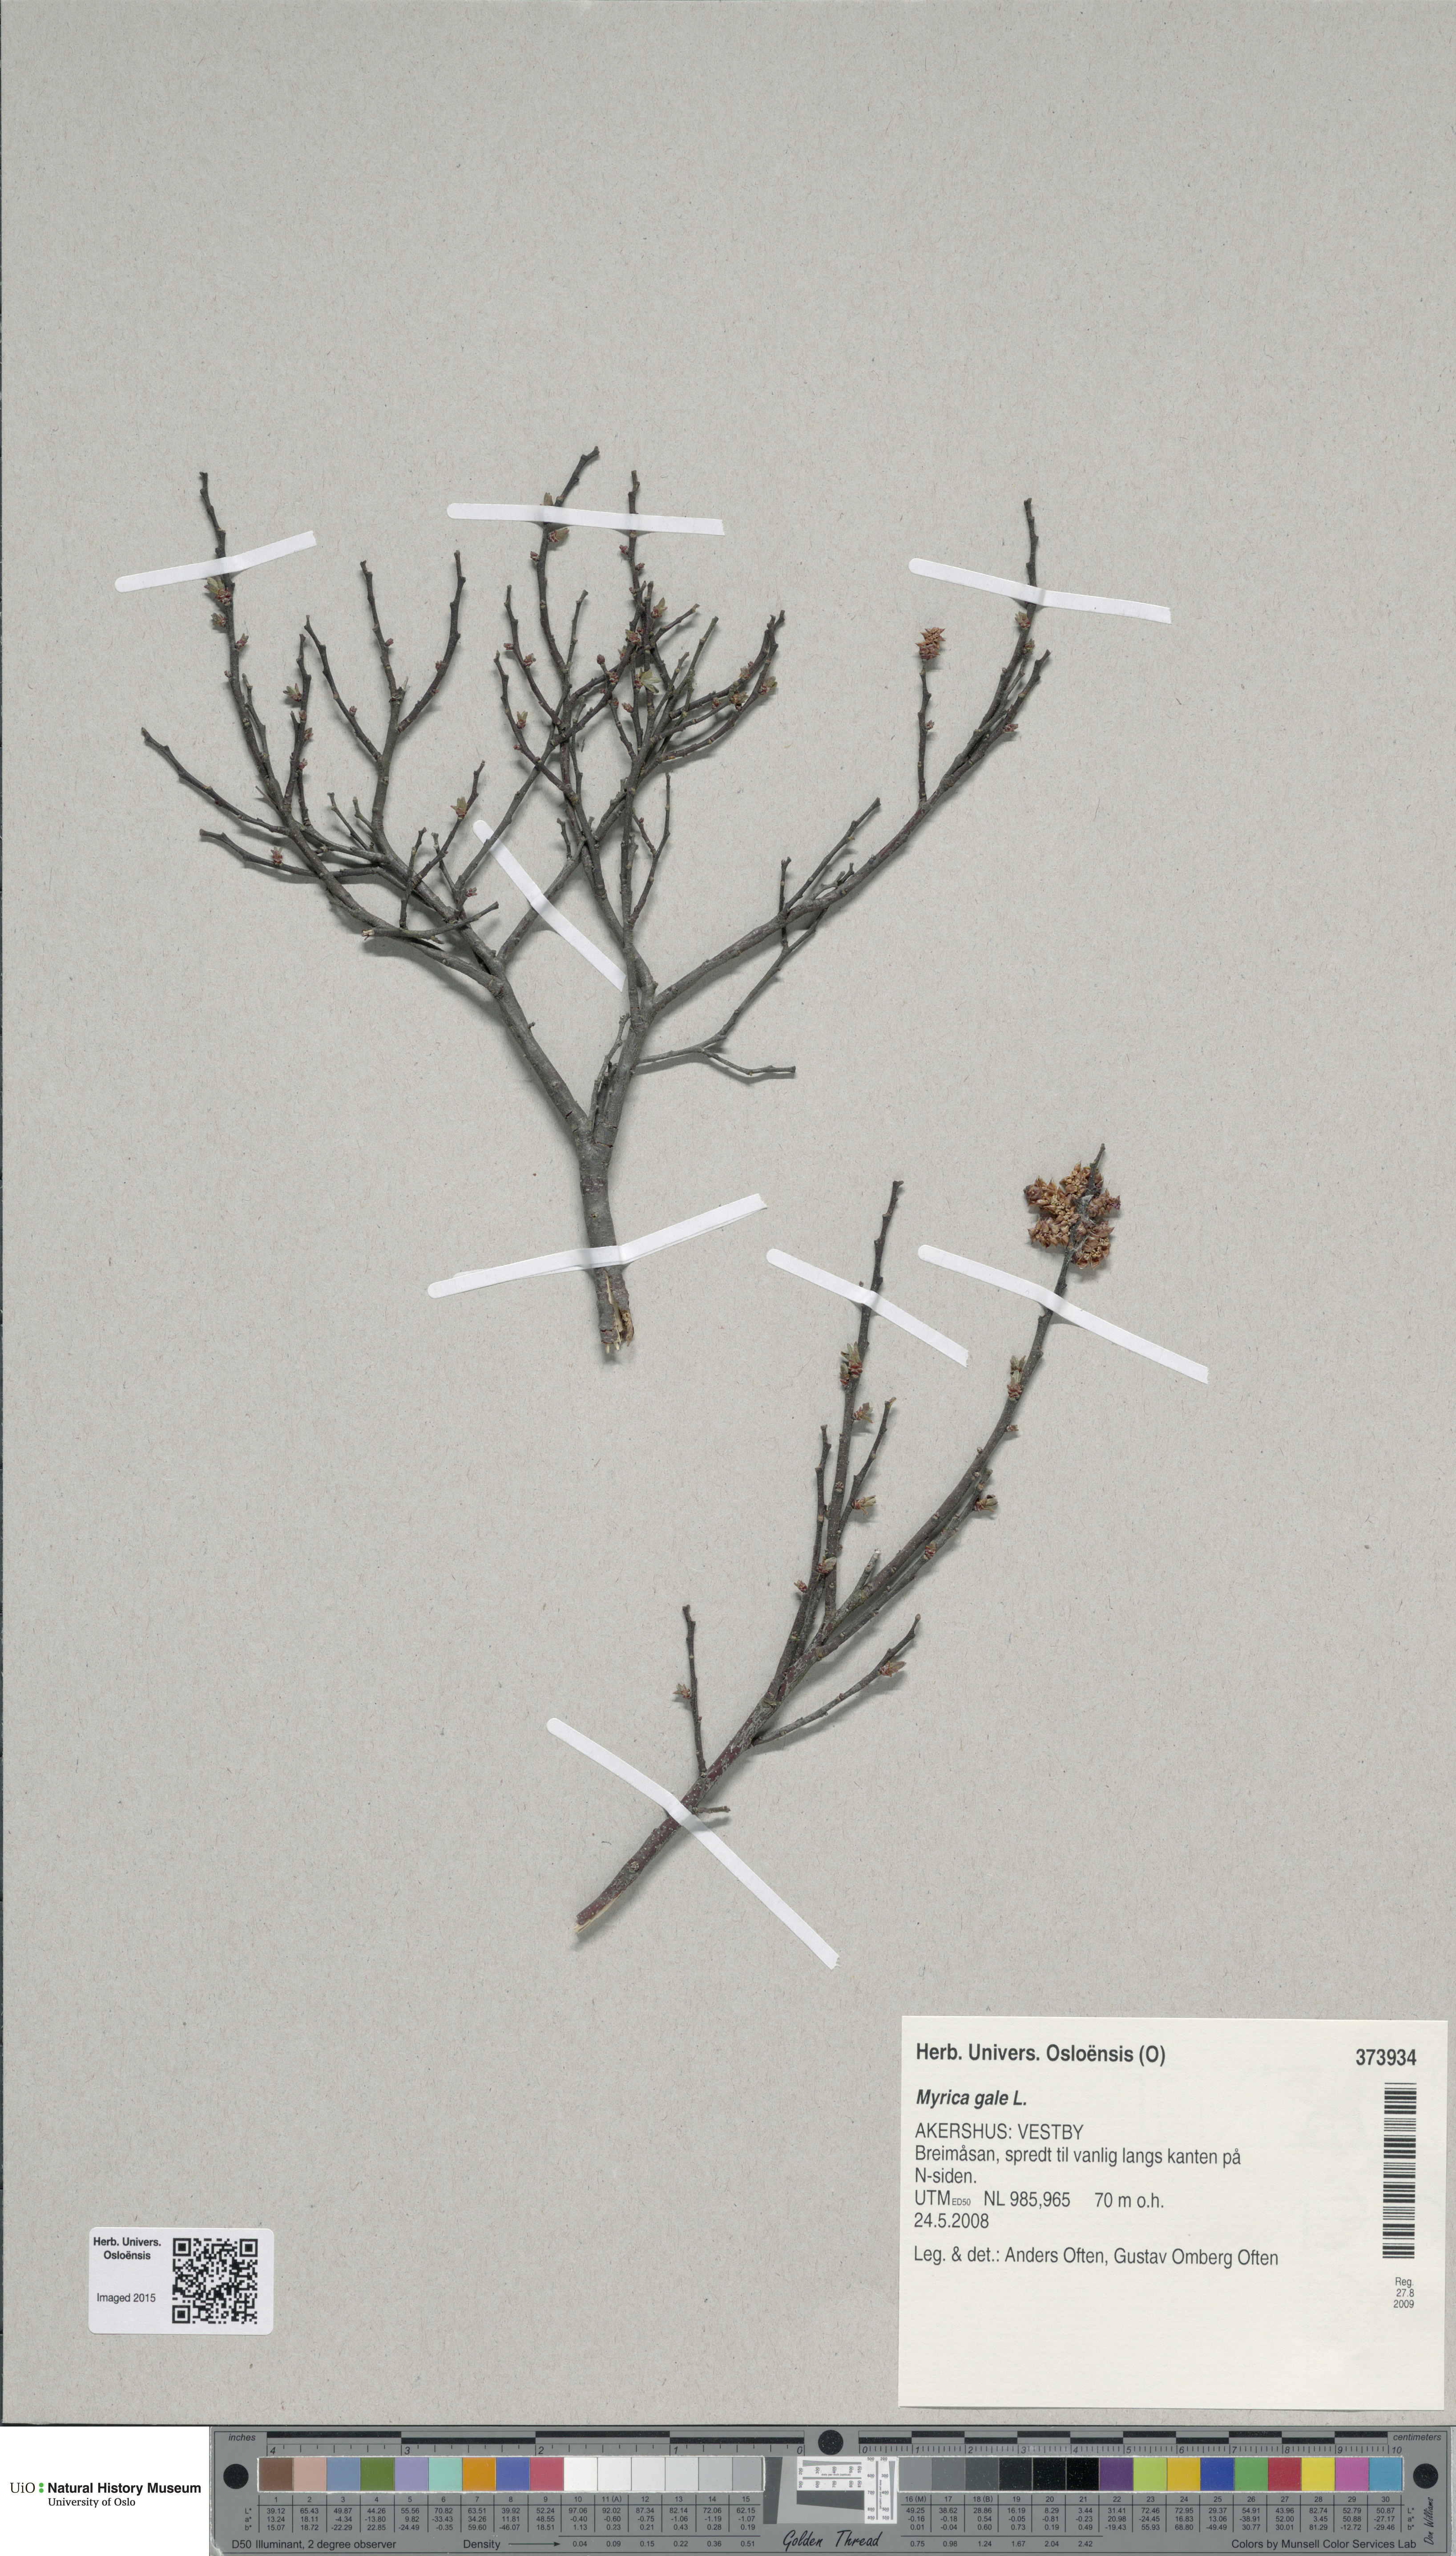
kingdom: Plantae
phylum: Tracheophyta
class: Magnoliopsida
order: Fagales
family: Myricaceae
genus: Myrica
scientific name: Myrica gale
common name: Sweet gale
